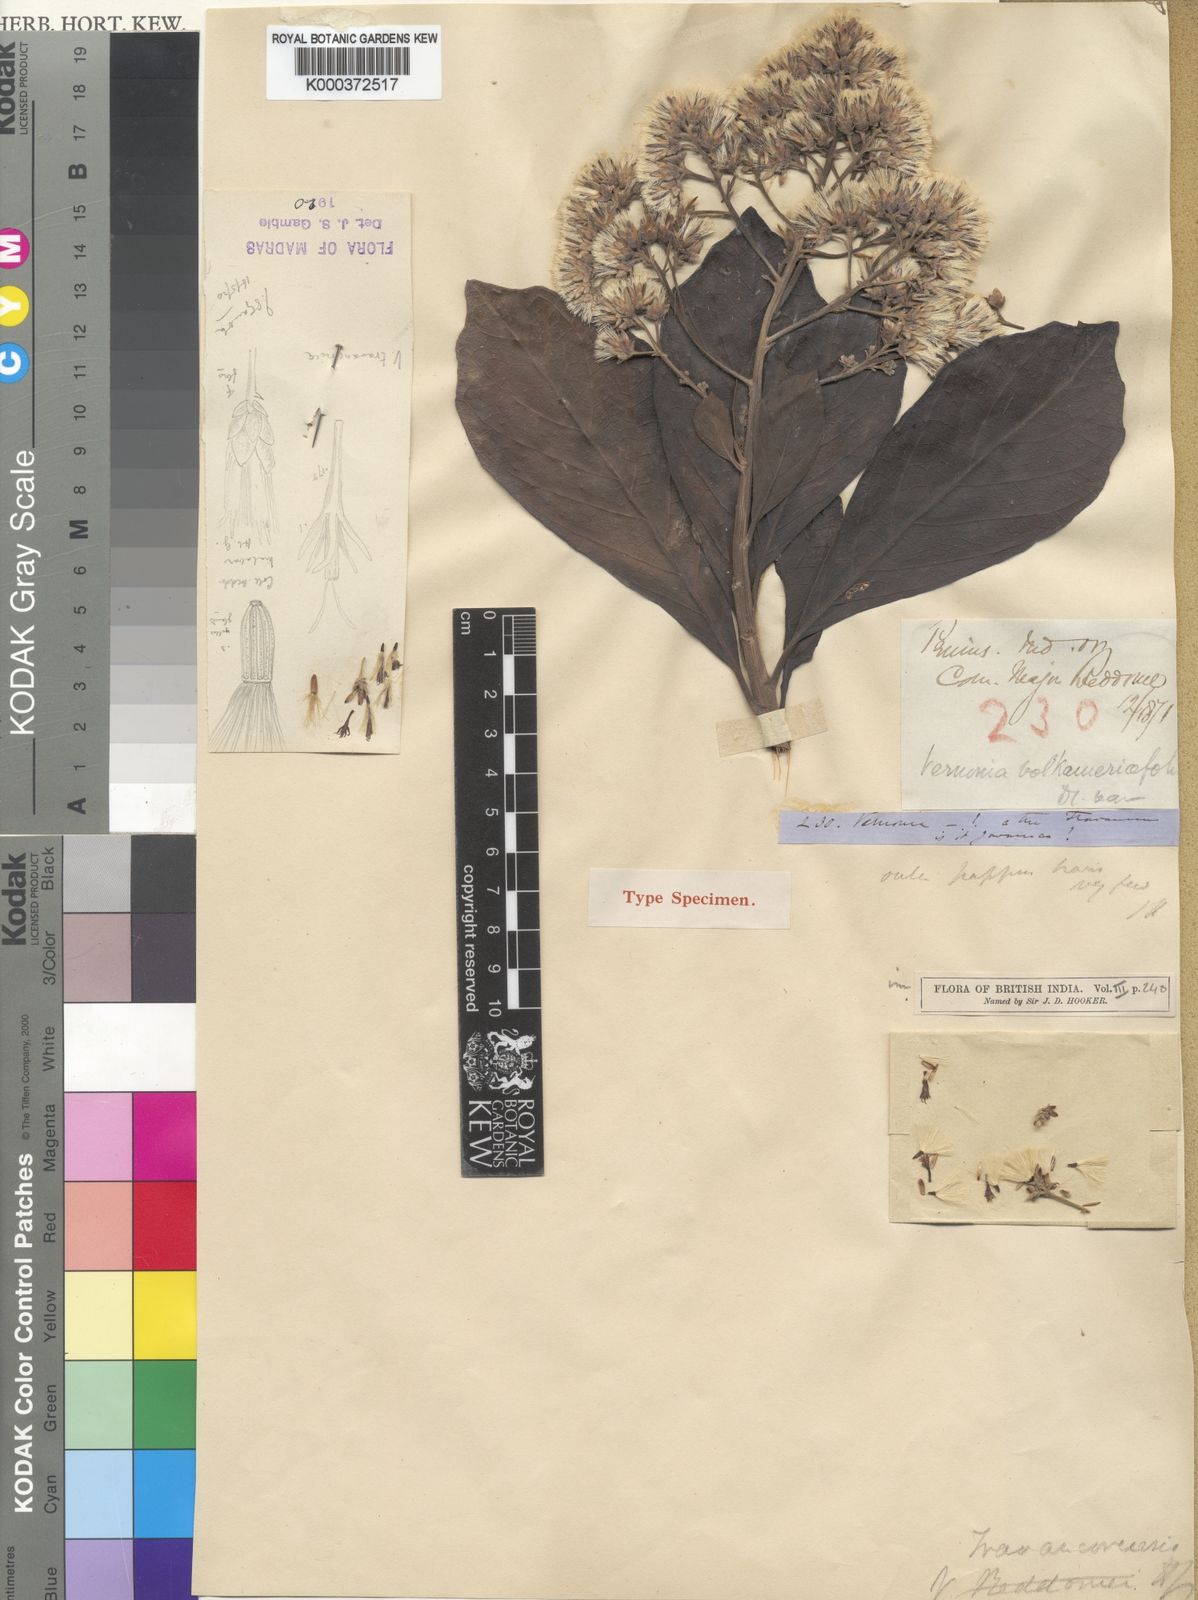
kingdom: Plantae
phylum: Tracheophyta
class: Magnoliopsida
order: Asterales
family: Asteraceae
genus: Monosis
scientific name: Monosis travancorica
